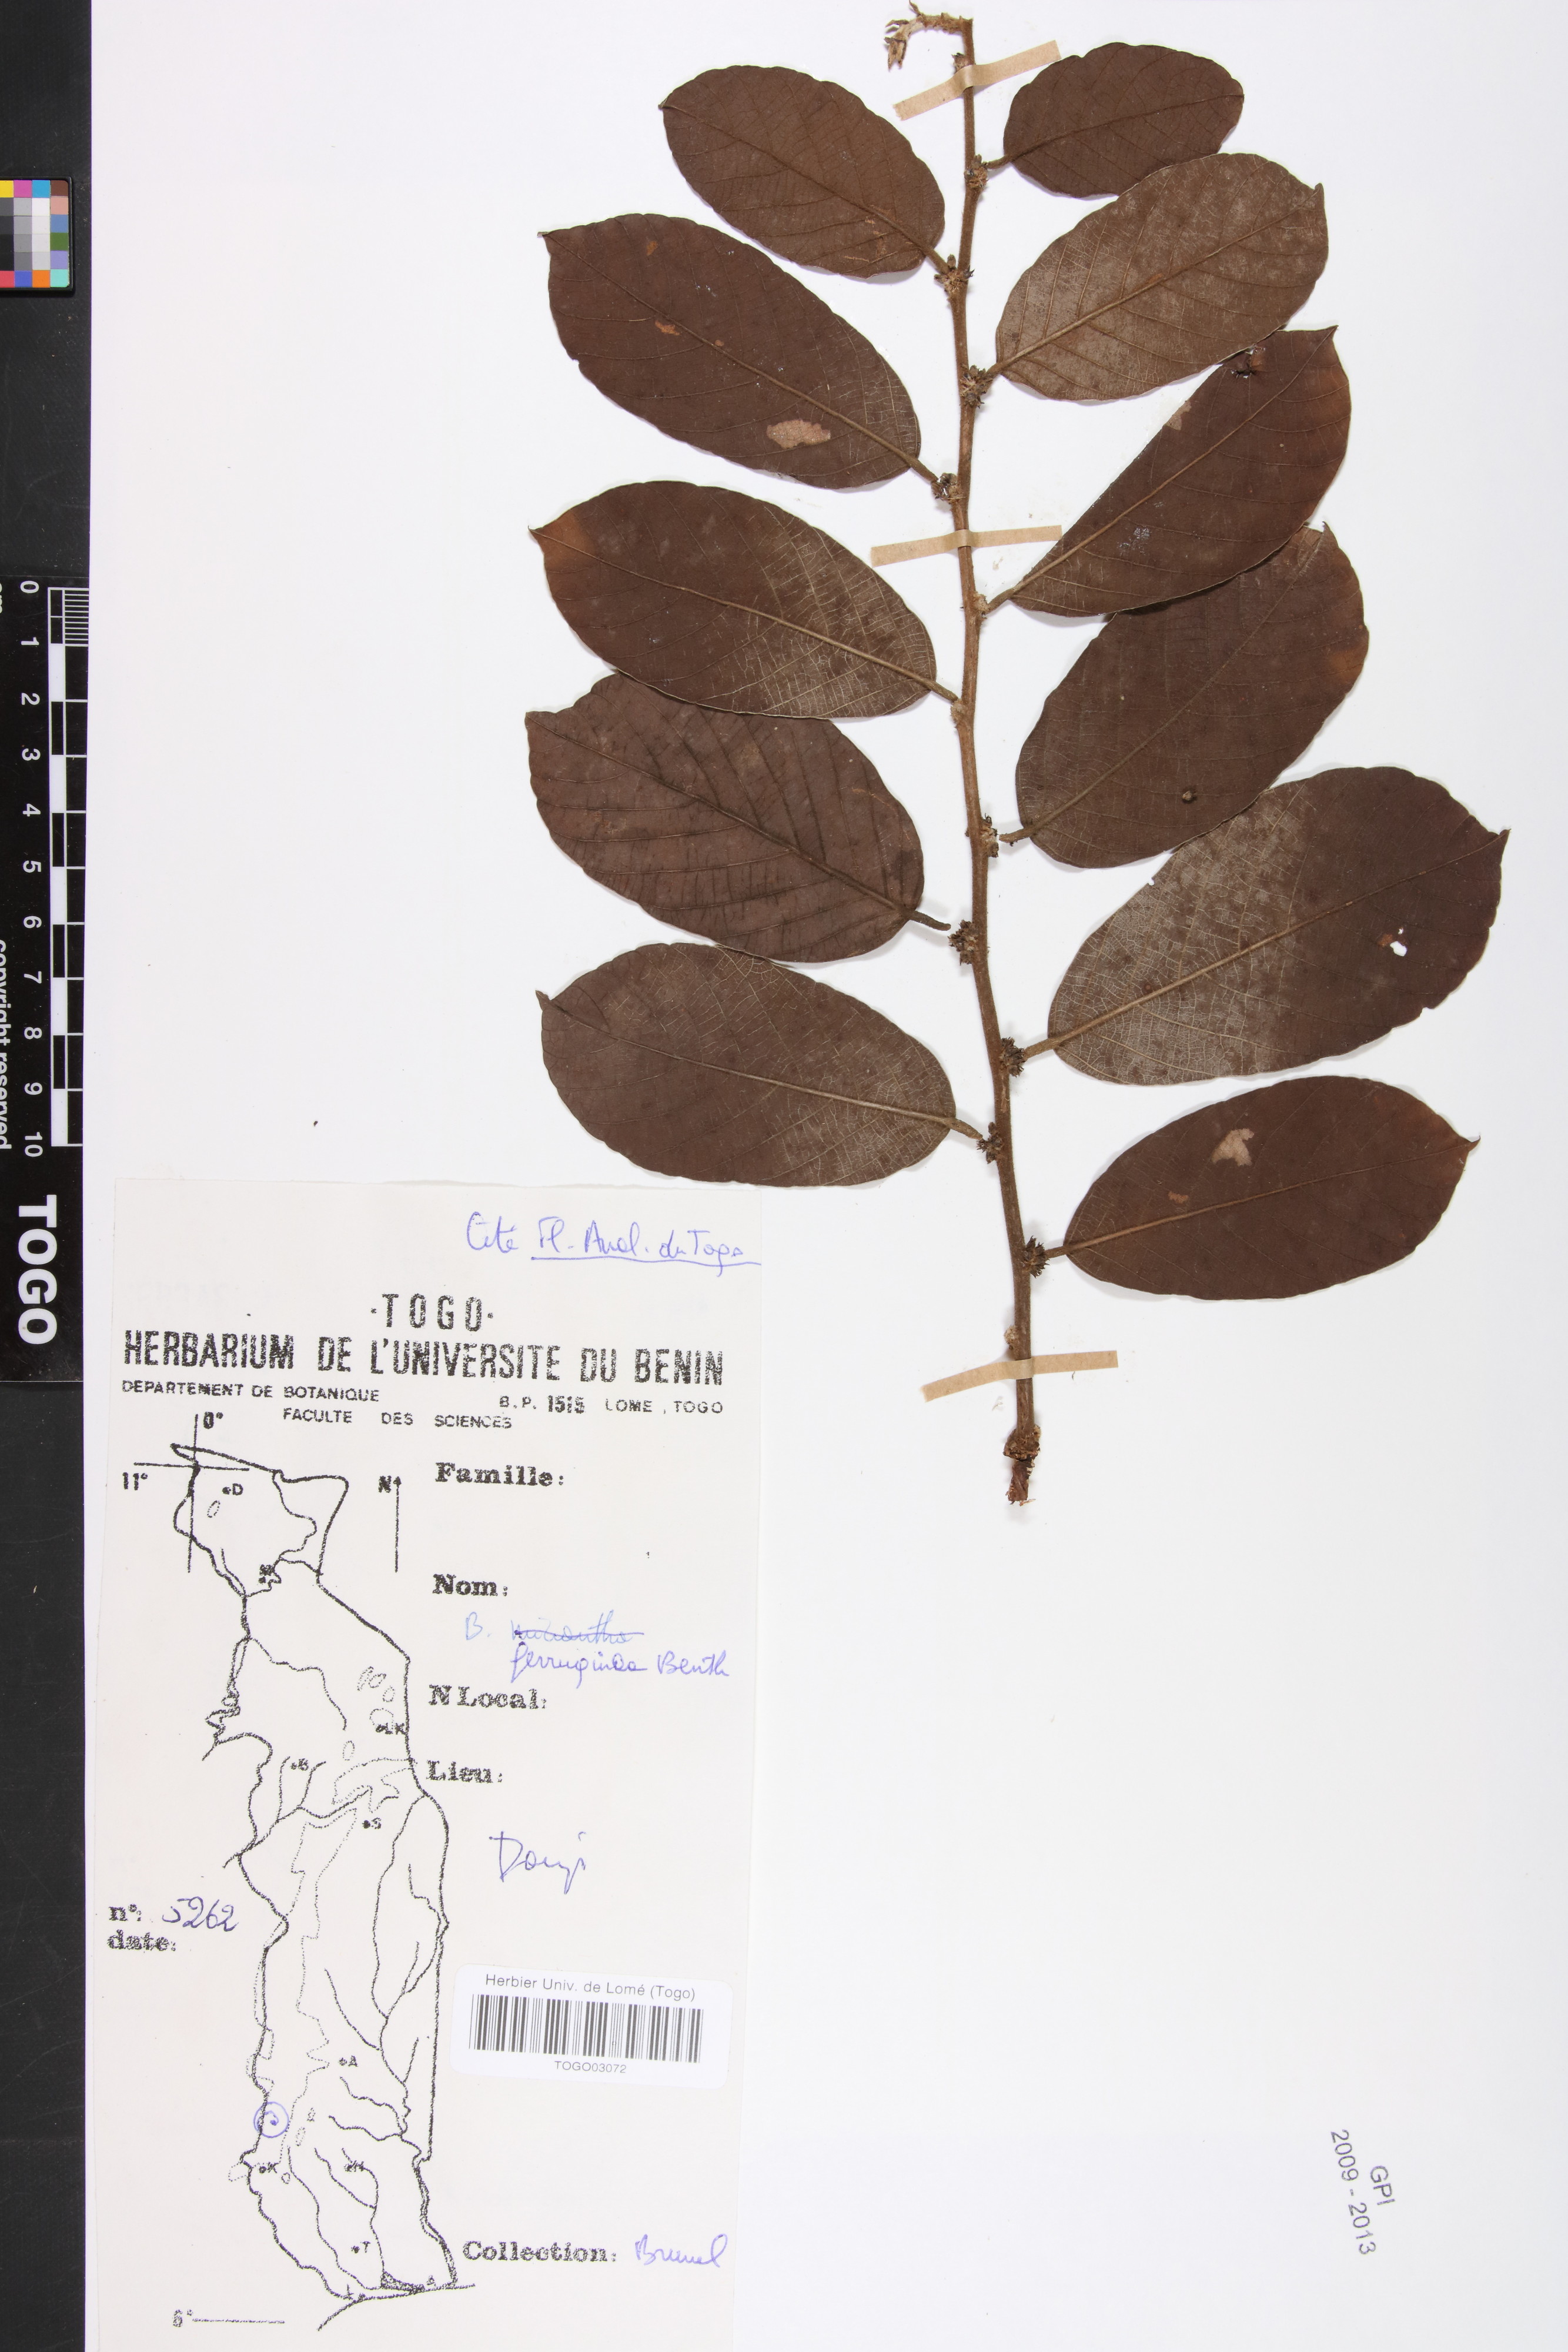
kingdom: Plantae
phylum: Tracheophyta
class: Magnoliopsida
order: Malpighiales
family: Phyllanthaceae
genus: Bridelia
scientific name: Bridelia ferruginea
